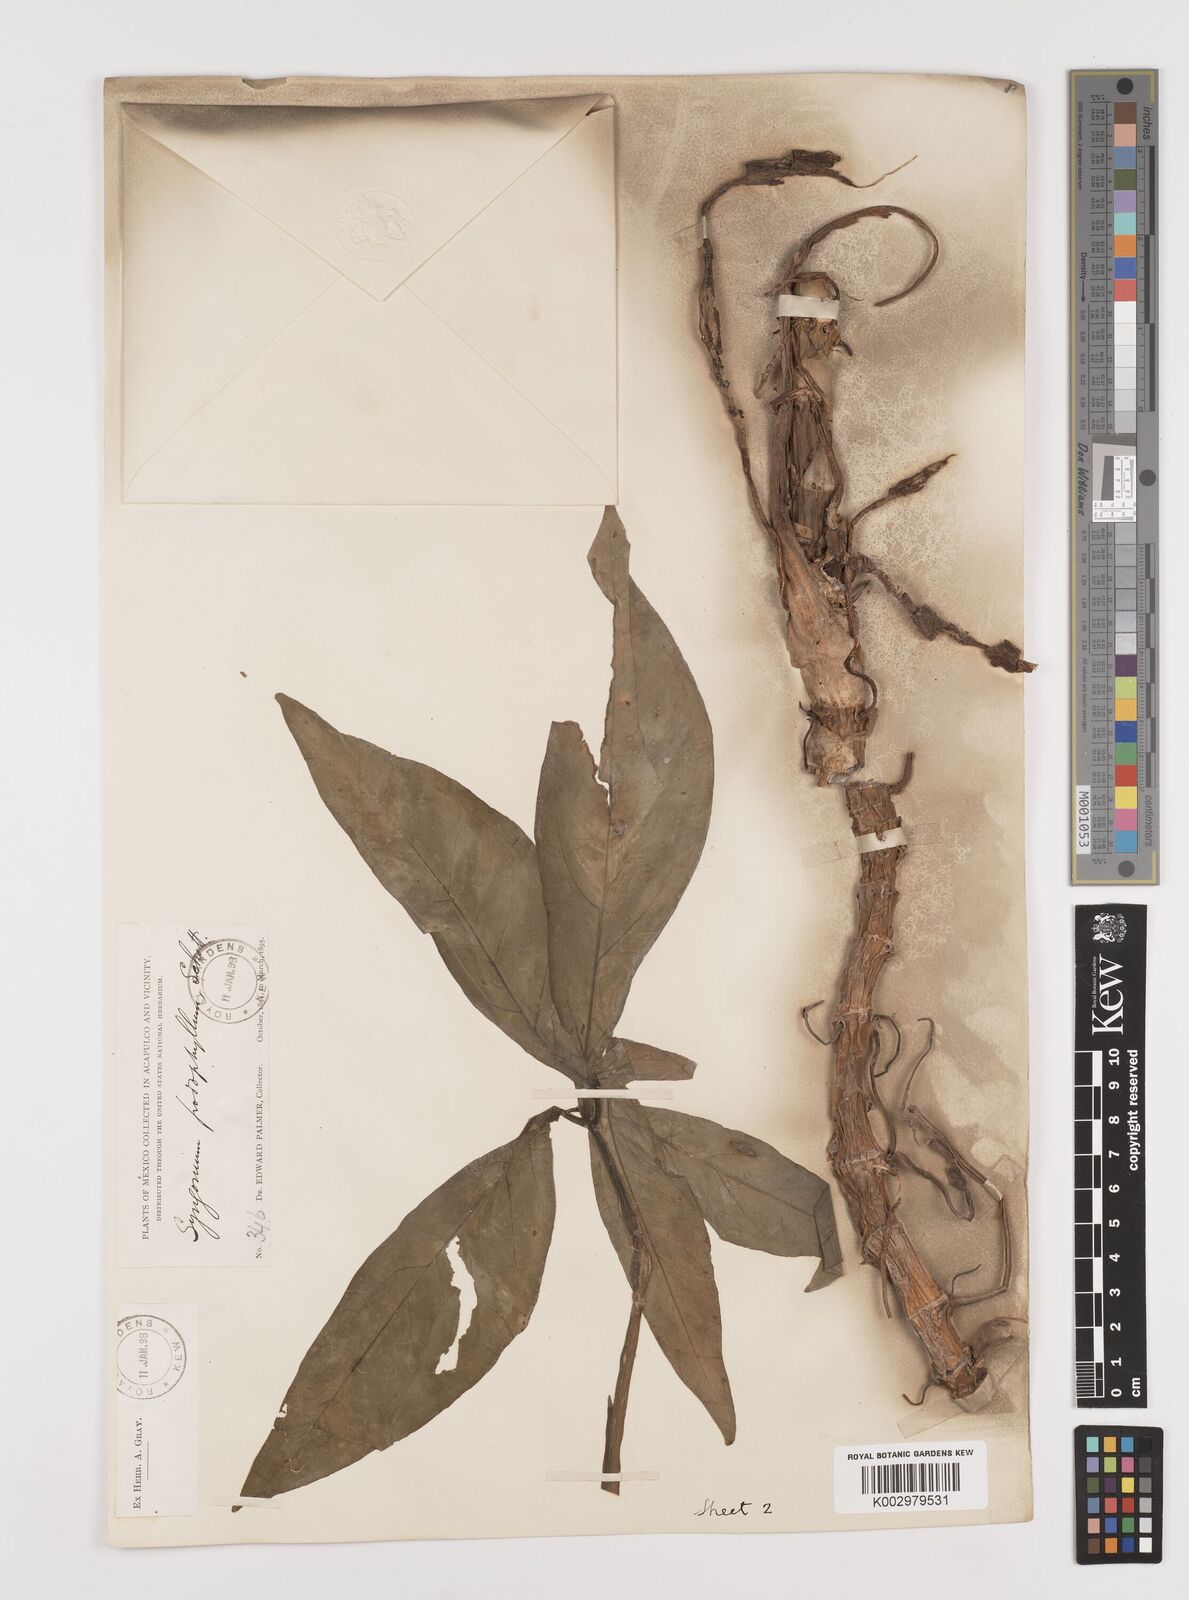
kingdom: Plantae
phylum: Tracheophyta
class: Liliopsida
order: Alismatales
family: Araceae
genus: Syngonium
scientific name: Syngonium podophyllum
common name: American evergreen
